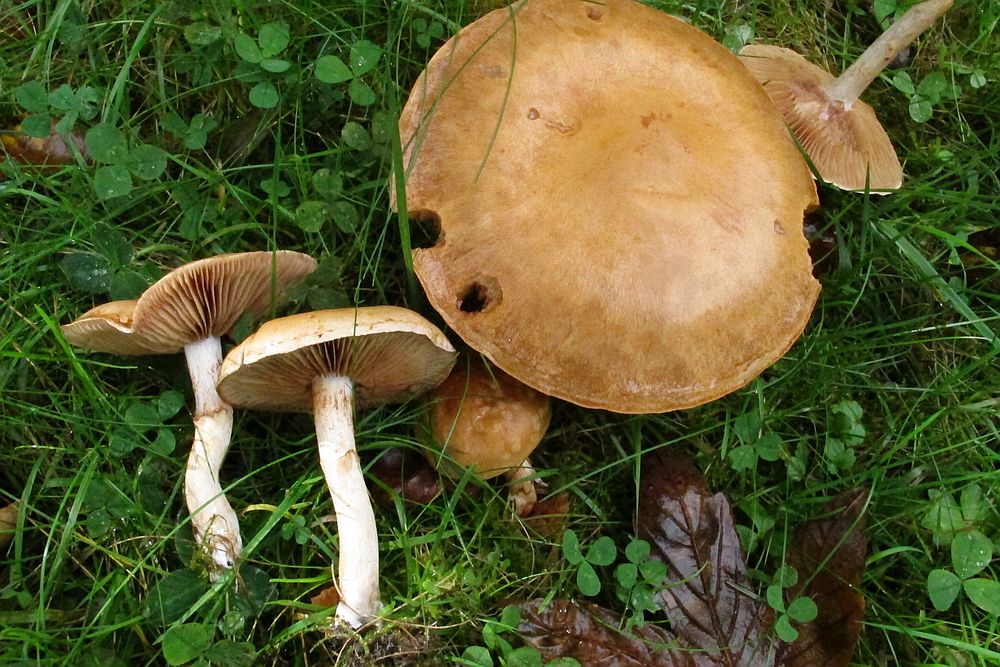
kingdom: Fungi
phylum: Basidiomycota
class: Agaricomycetes
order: Agaricales
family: Cortinariaceae
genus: Cortinarius
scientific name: Cortinarius anomalus
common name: Variable webcap
